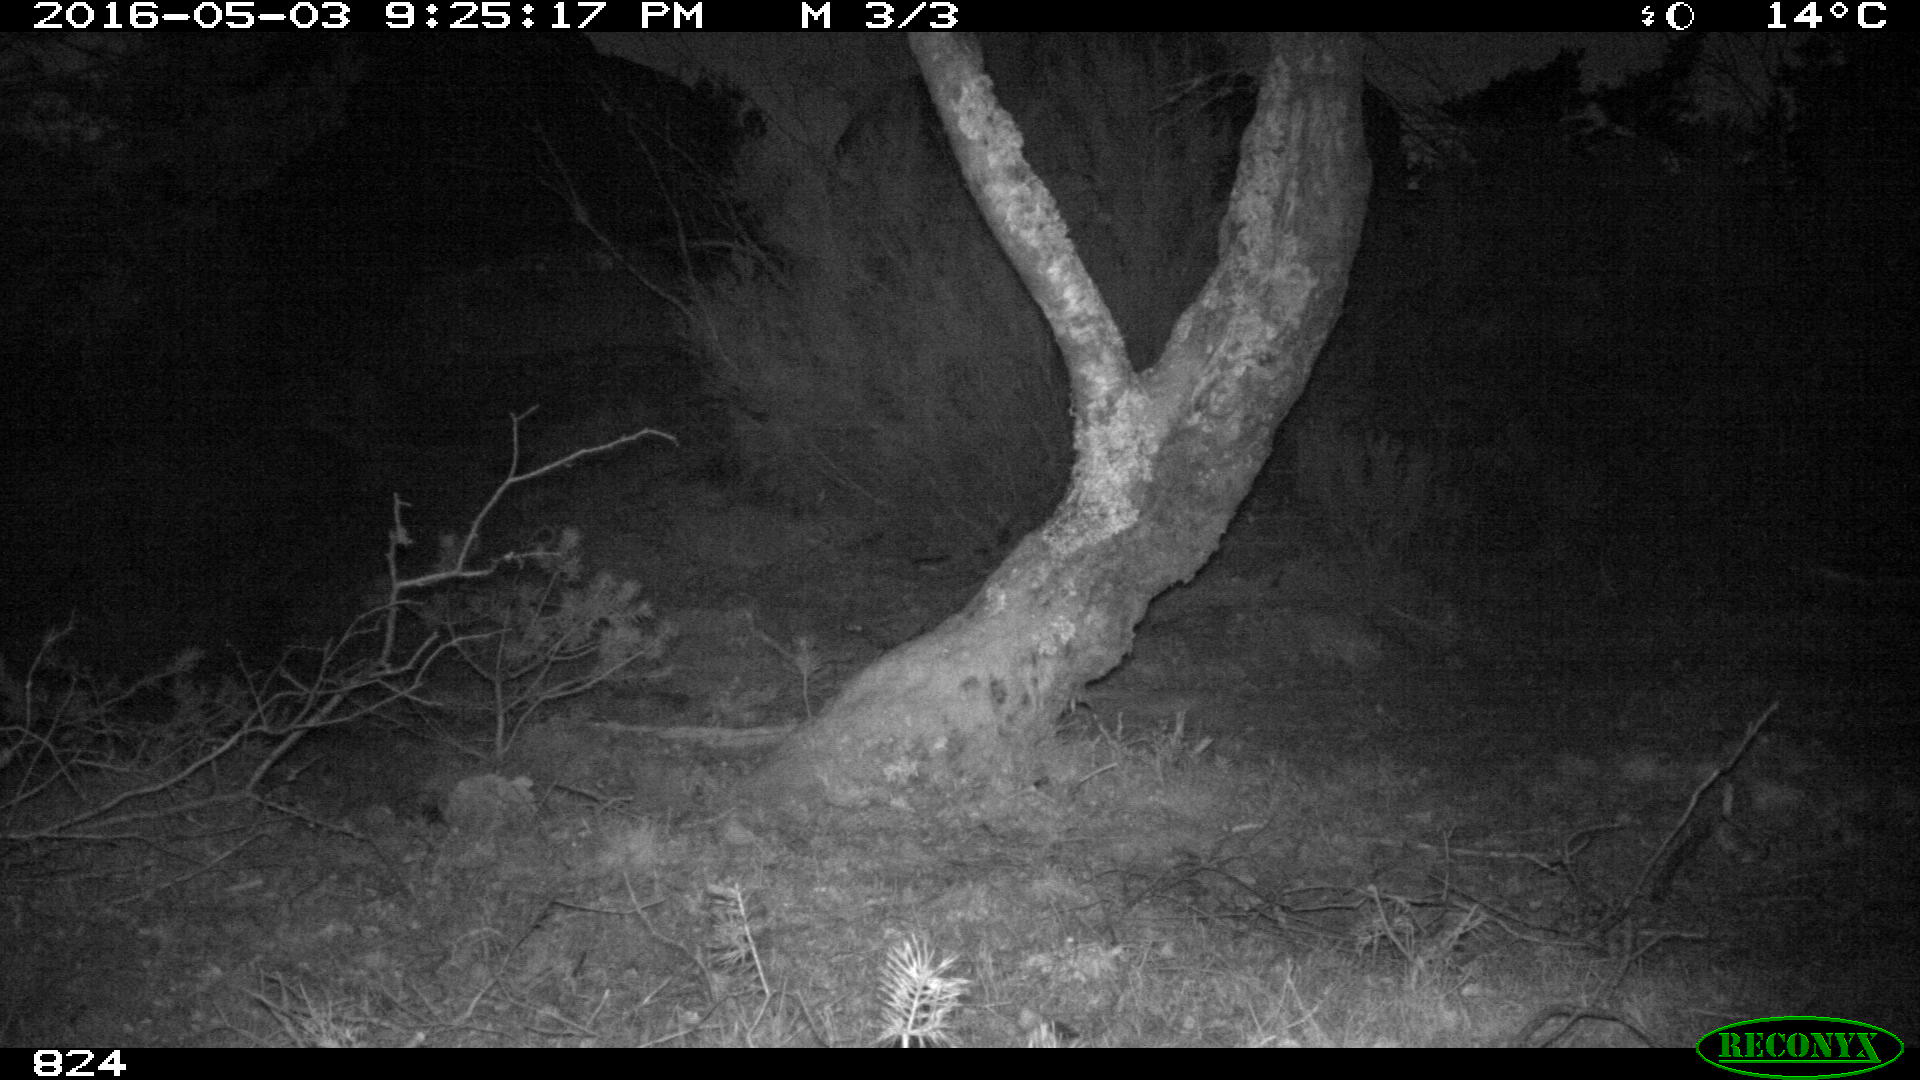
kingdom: Animalia
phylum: Chordata
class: Mammalia
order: Artiodactyla
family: Suidae
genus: Sus
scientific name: Sus scrofa
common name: Wild boar
